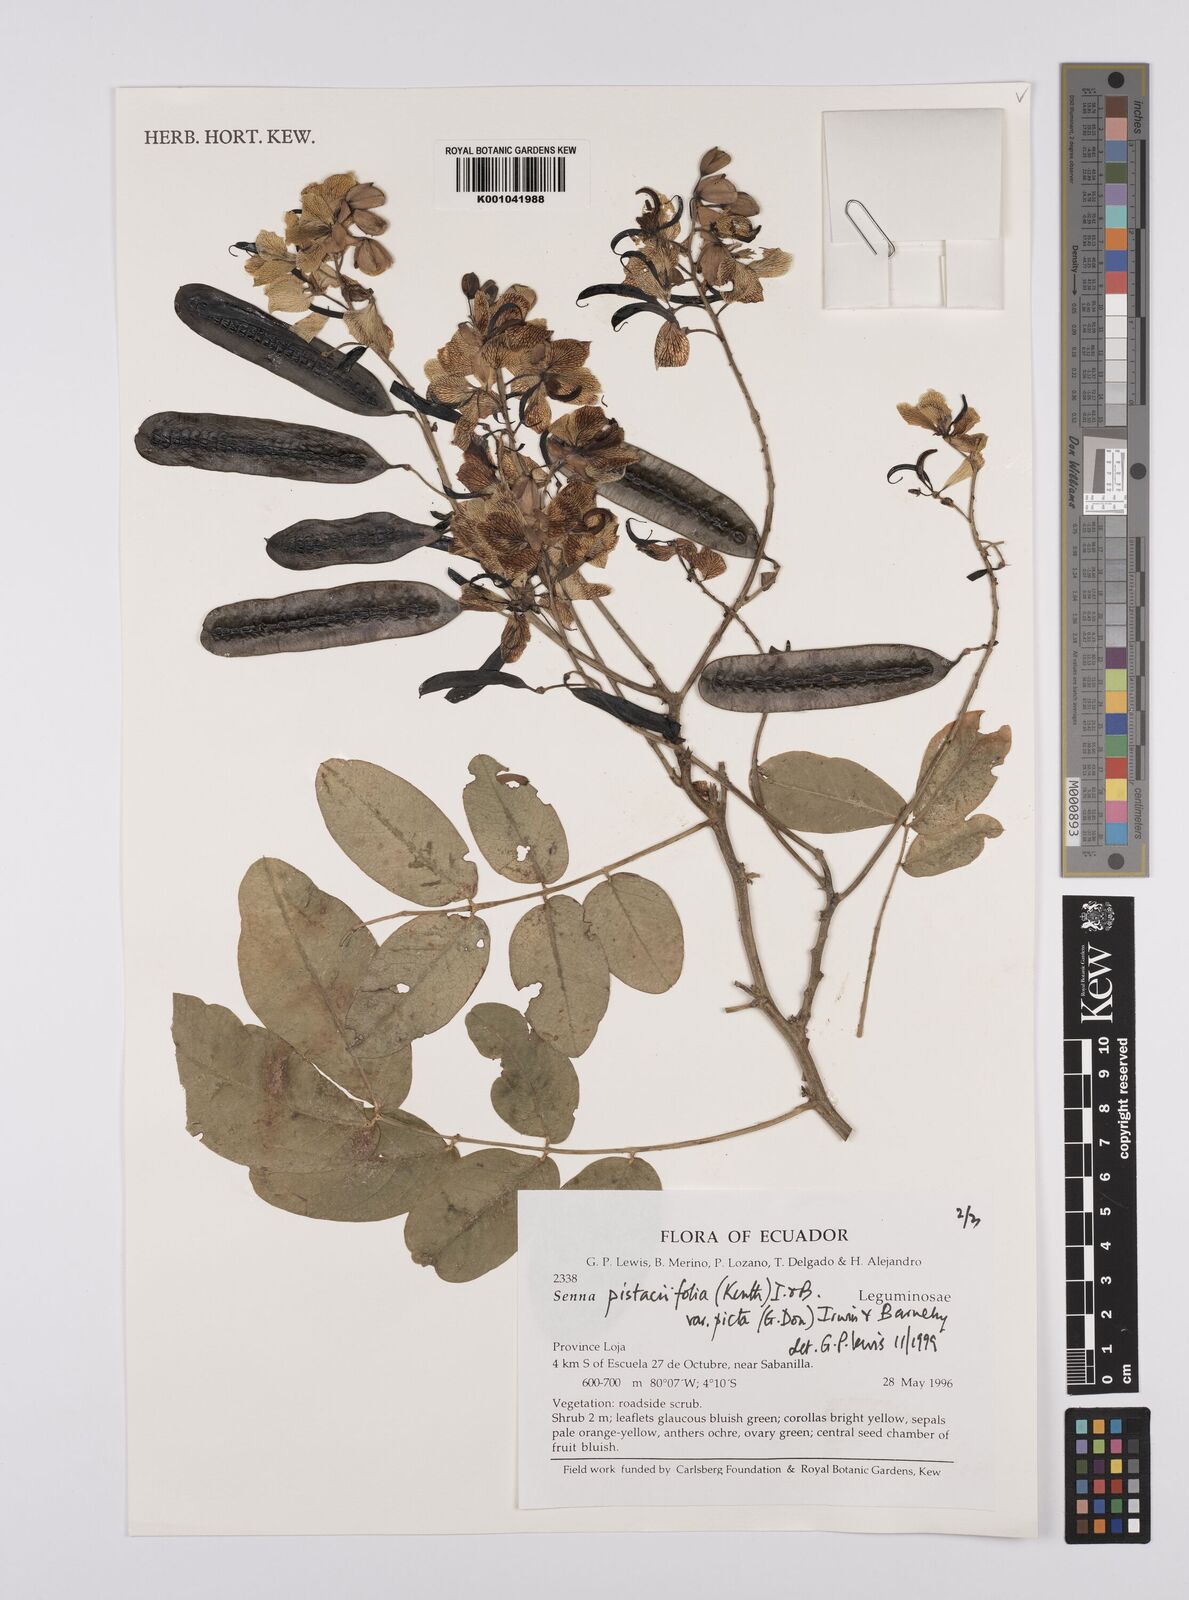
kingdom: Plantae
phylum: Tracheophyta
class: Magnoliopsida
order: Fabales
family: Fabaceae
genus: Senna
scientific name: Senna pistaciifolia
